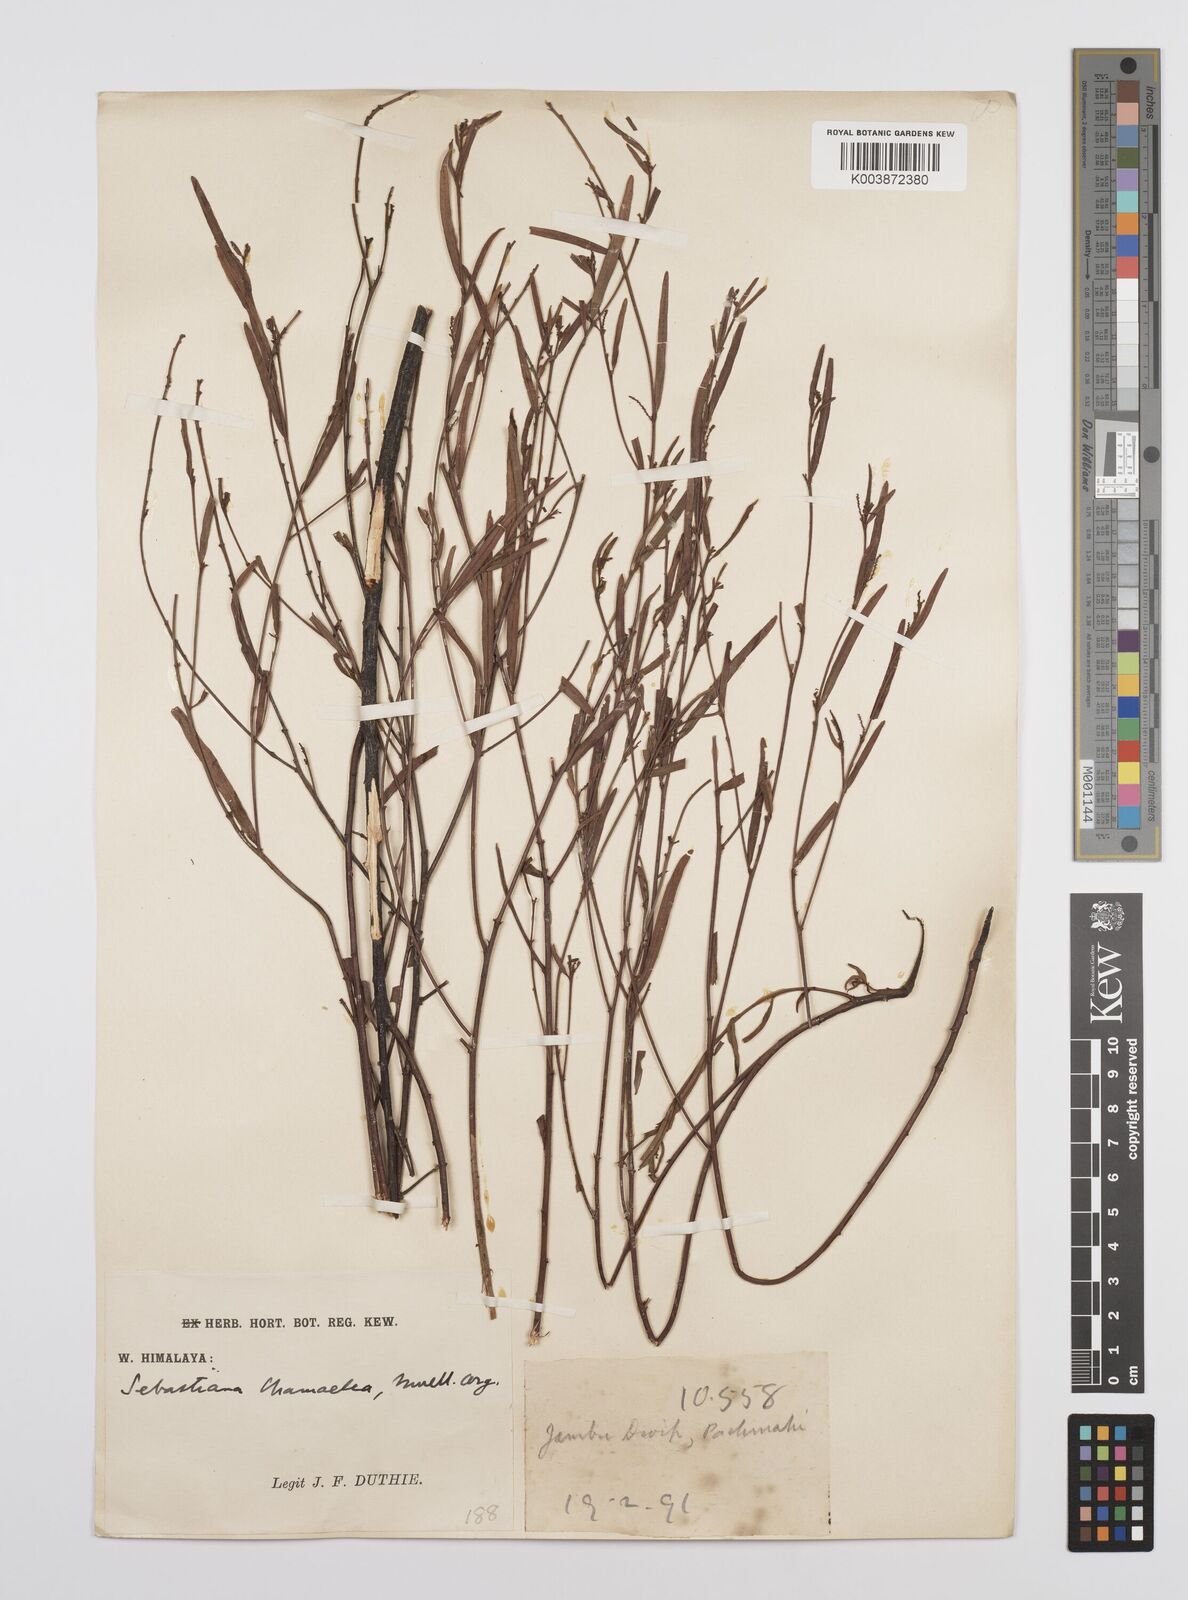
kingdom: Plantae
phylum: Tracheophyta
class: Magnoliopsida
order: Malpighiales
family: Euphorbiaceae
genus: Microstachys
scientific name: Microstachys chamaelea
